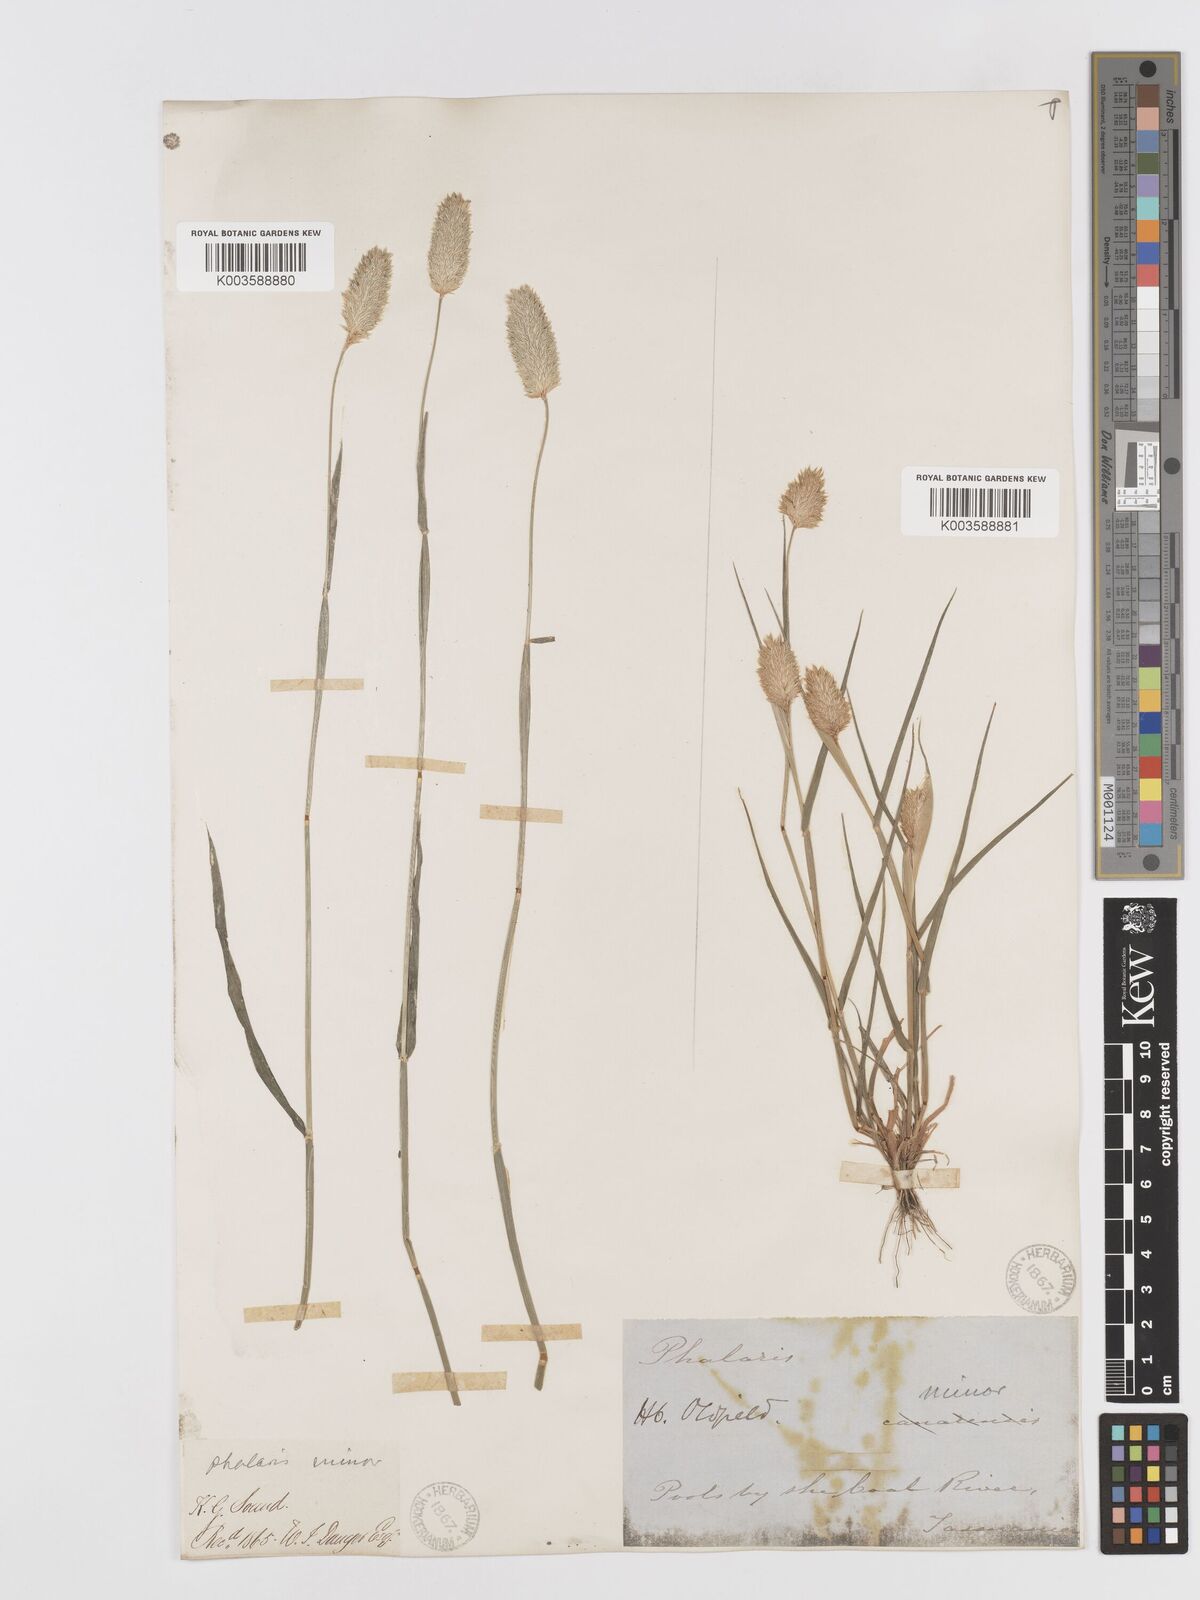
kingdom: Plantae
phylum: Tracheophyta
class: Liliopsida
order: Poales
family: Poaceae
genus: Phalaris
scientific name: Phalaris minor
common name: Littleseed canarygrass
